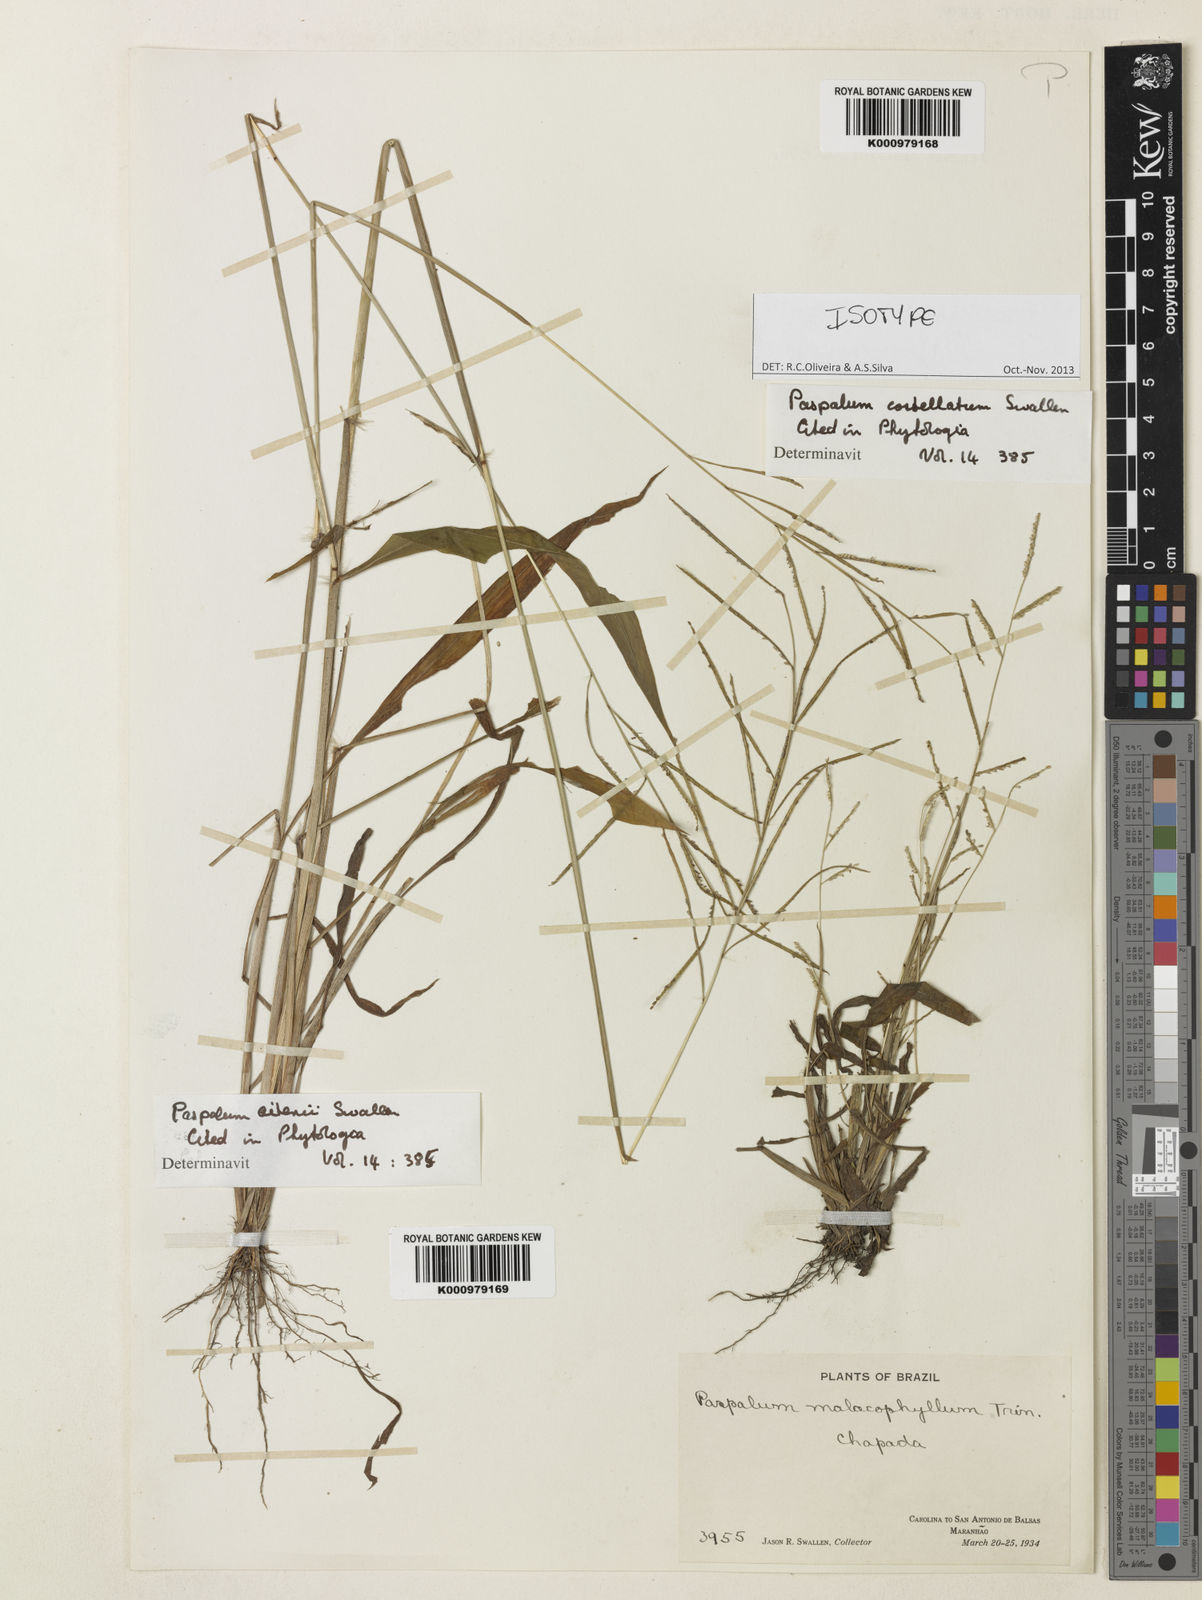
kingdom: Plantae
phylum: Tracheophyta
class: Liliopsida
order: Poales
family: Poaceae
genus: Paspalum
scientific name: Paspalum costellatum
